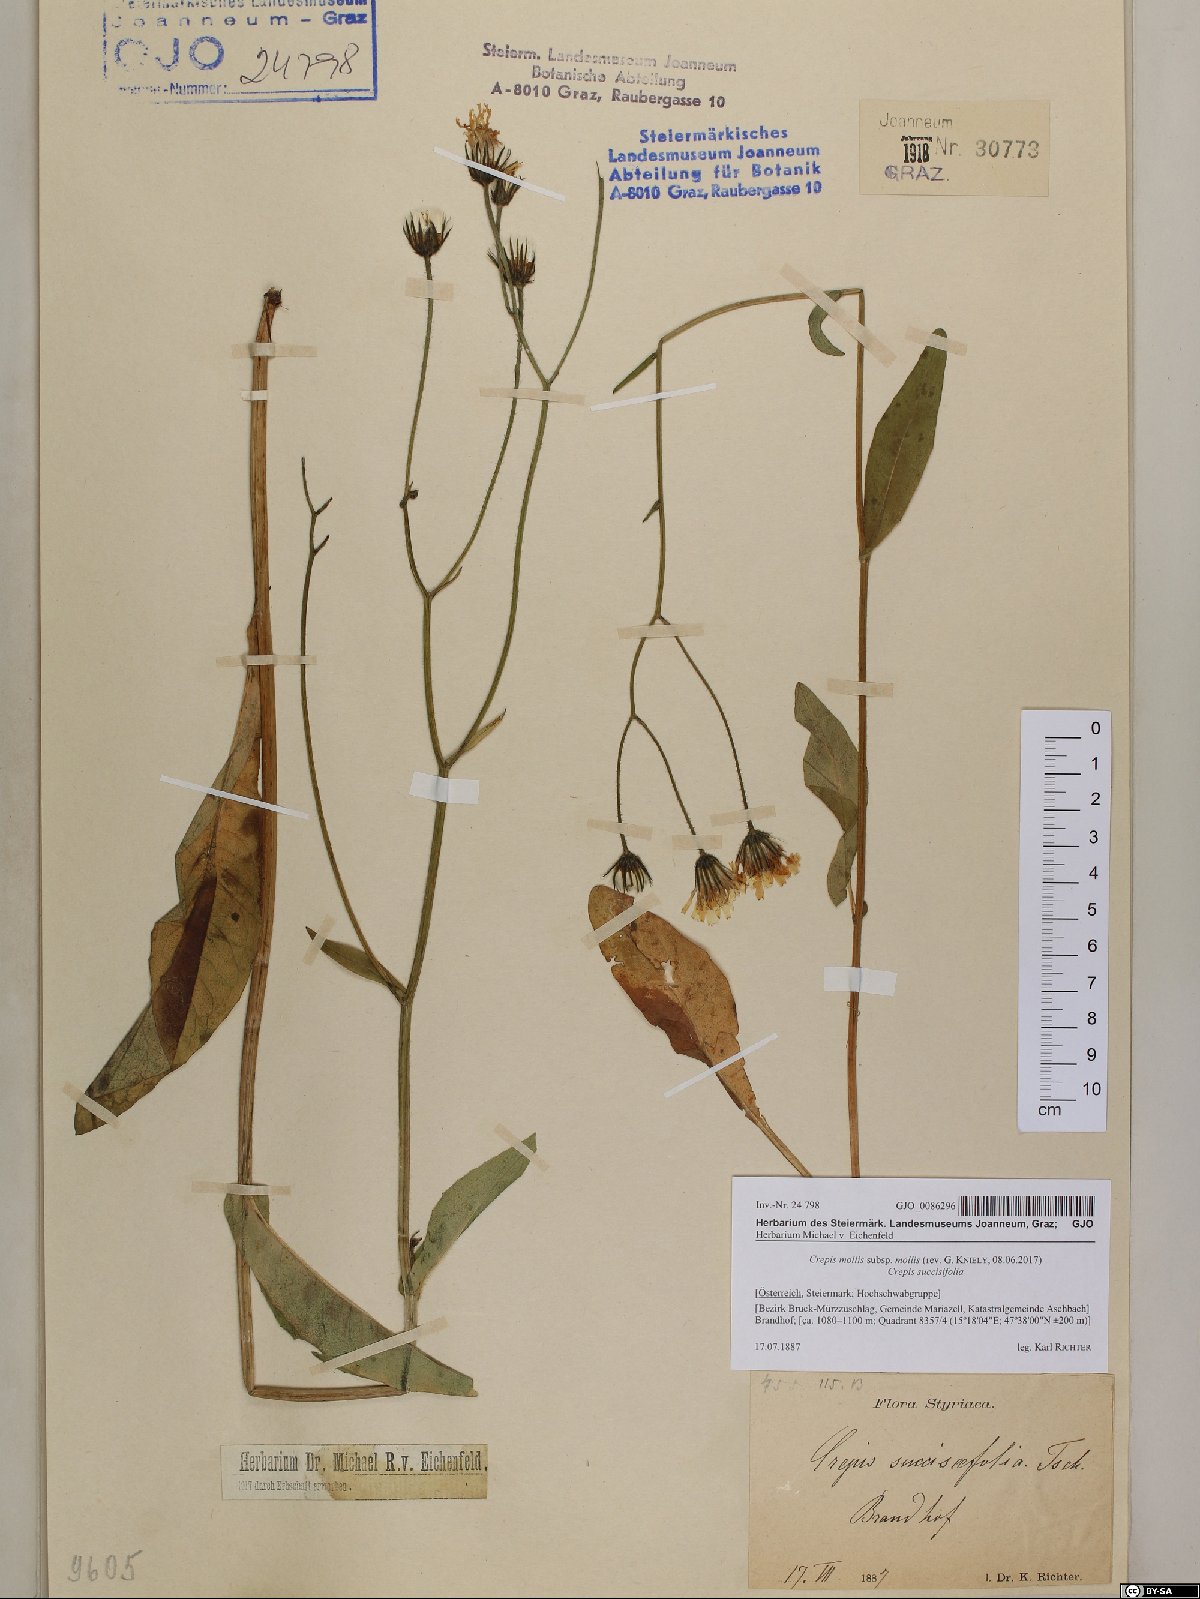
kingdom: Plantae
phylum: Tracheophyta
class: Magnoliopsida
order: Asterales
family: Asteraceae
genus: Crepis
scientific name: Crepis mollis
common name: Northern hawk's-beard
